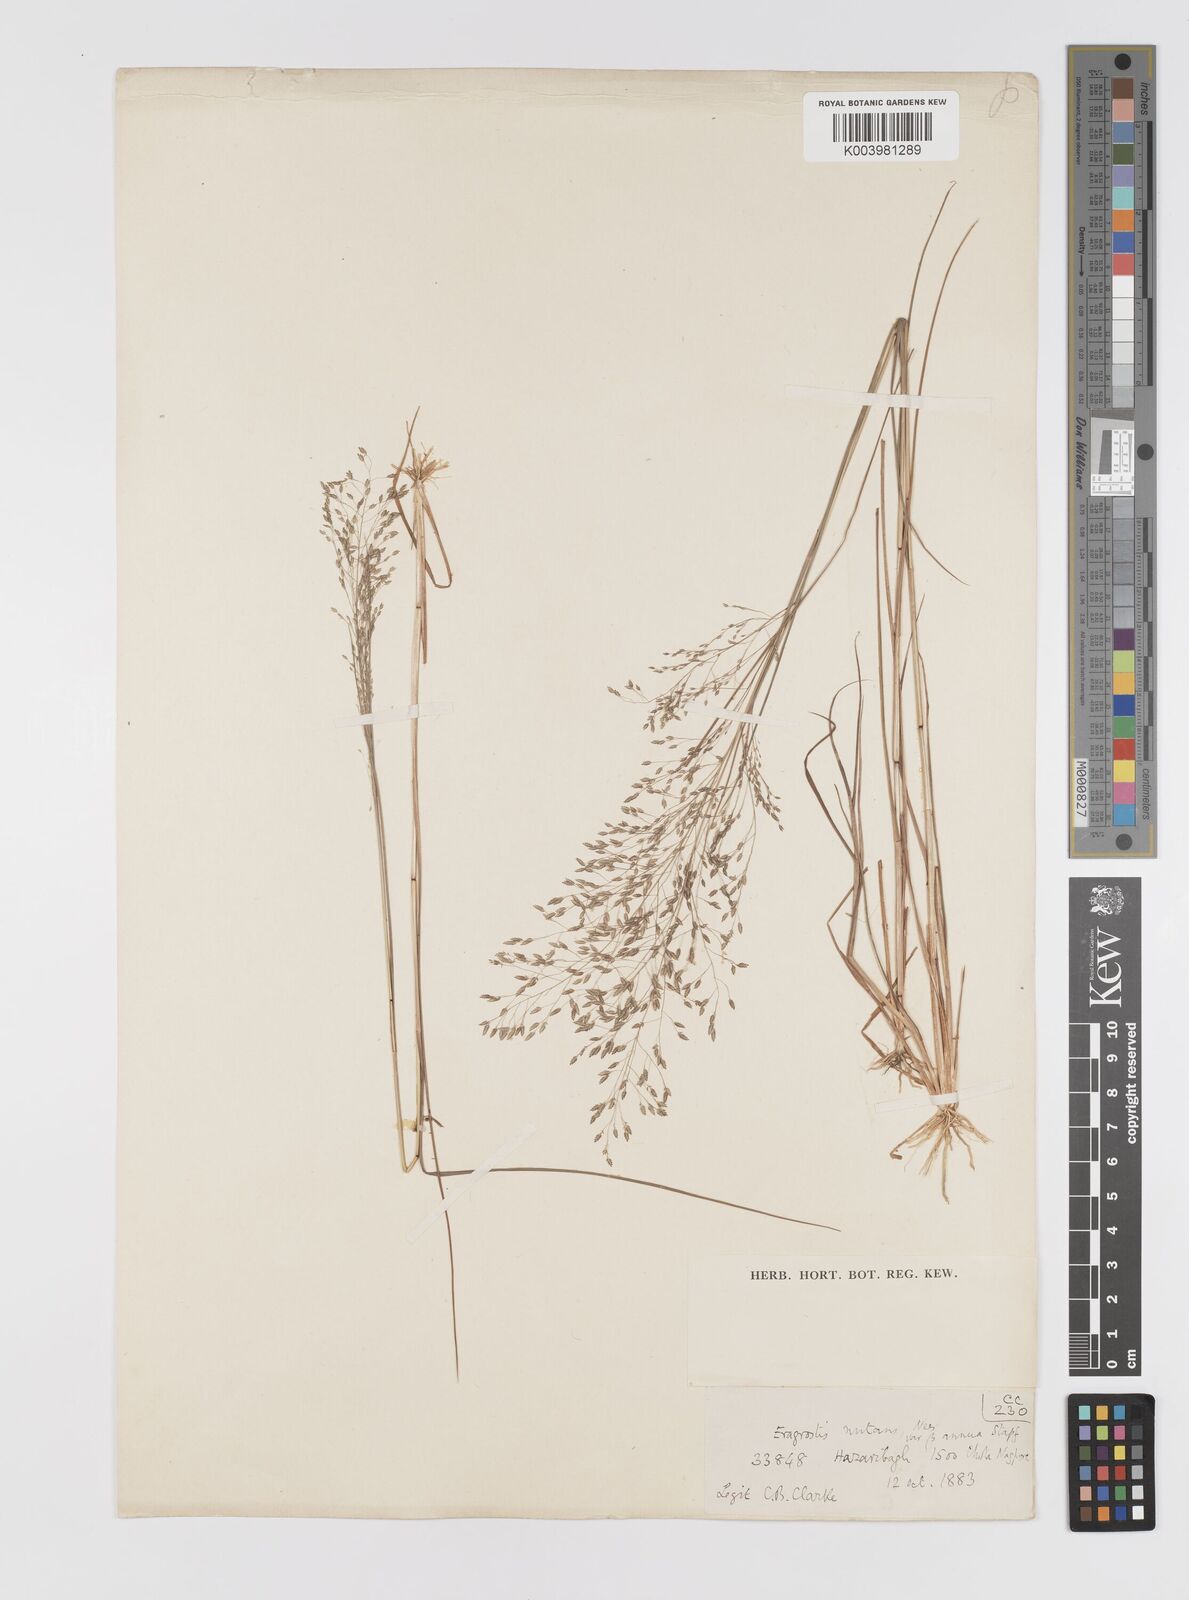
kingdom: Plantae
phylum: Tracheophyta
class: Liliopsida
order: Poales
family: Poaceae
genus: Eragrostis
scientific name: Eragrostis gangetica
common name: Slimflower lovegrass
